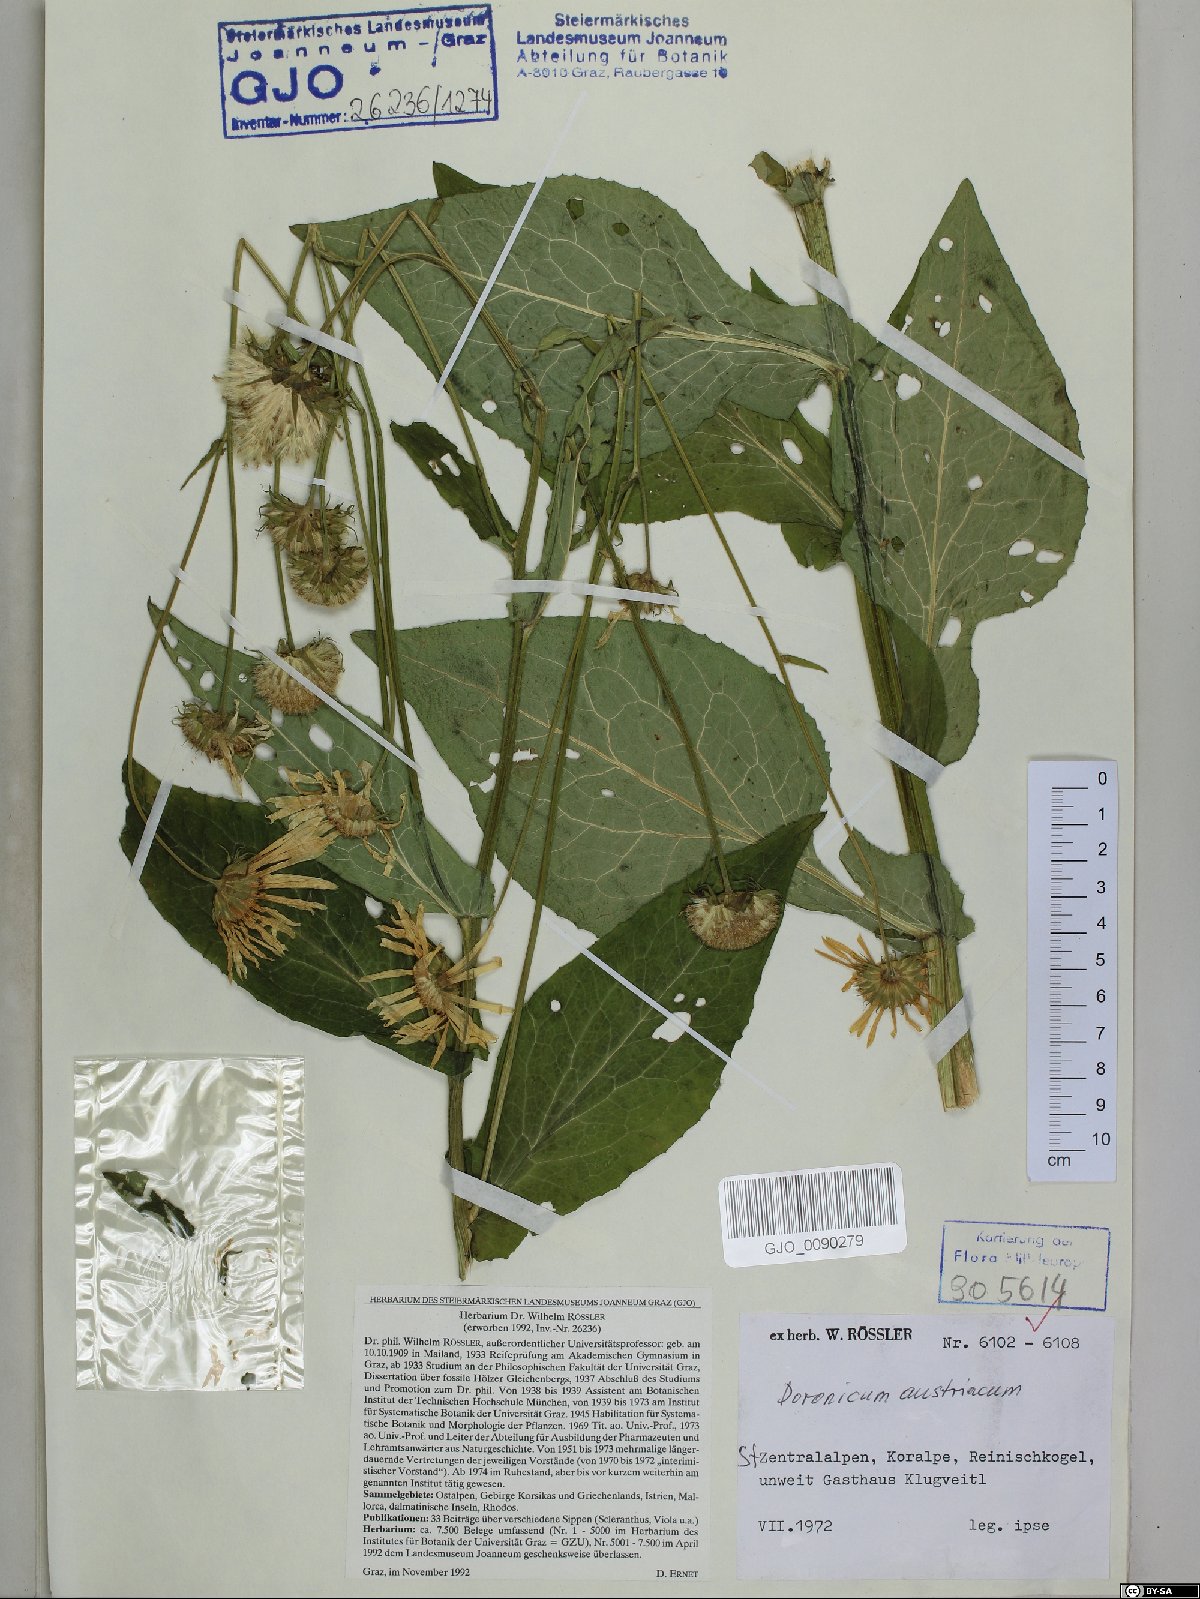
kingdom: Plantae
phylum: Tracheophyta
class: Magnoliopsida
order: Asterales
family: Asteraceae
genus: Doronicum
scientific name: Doronicum austriacum
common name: Austrian leopard's-bane
